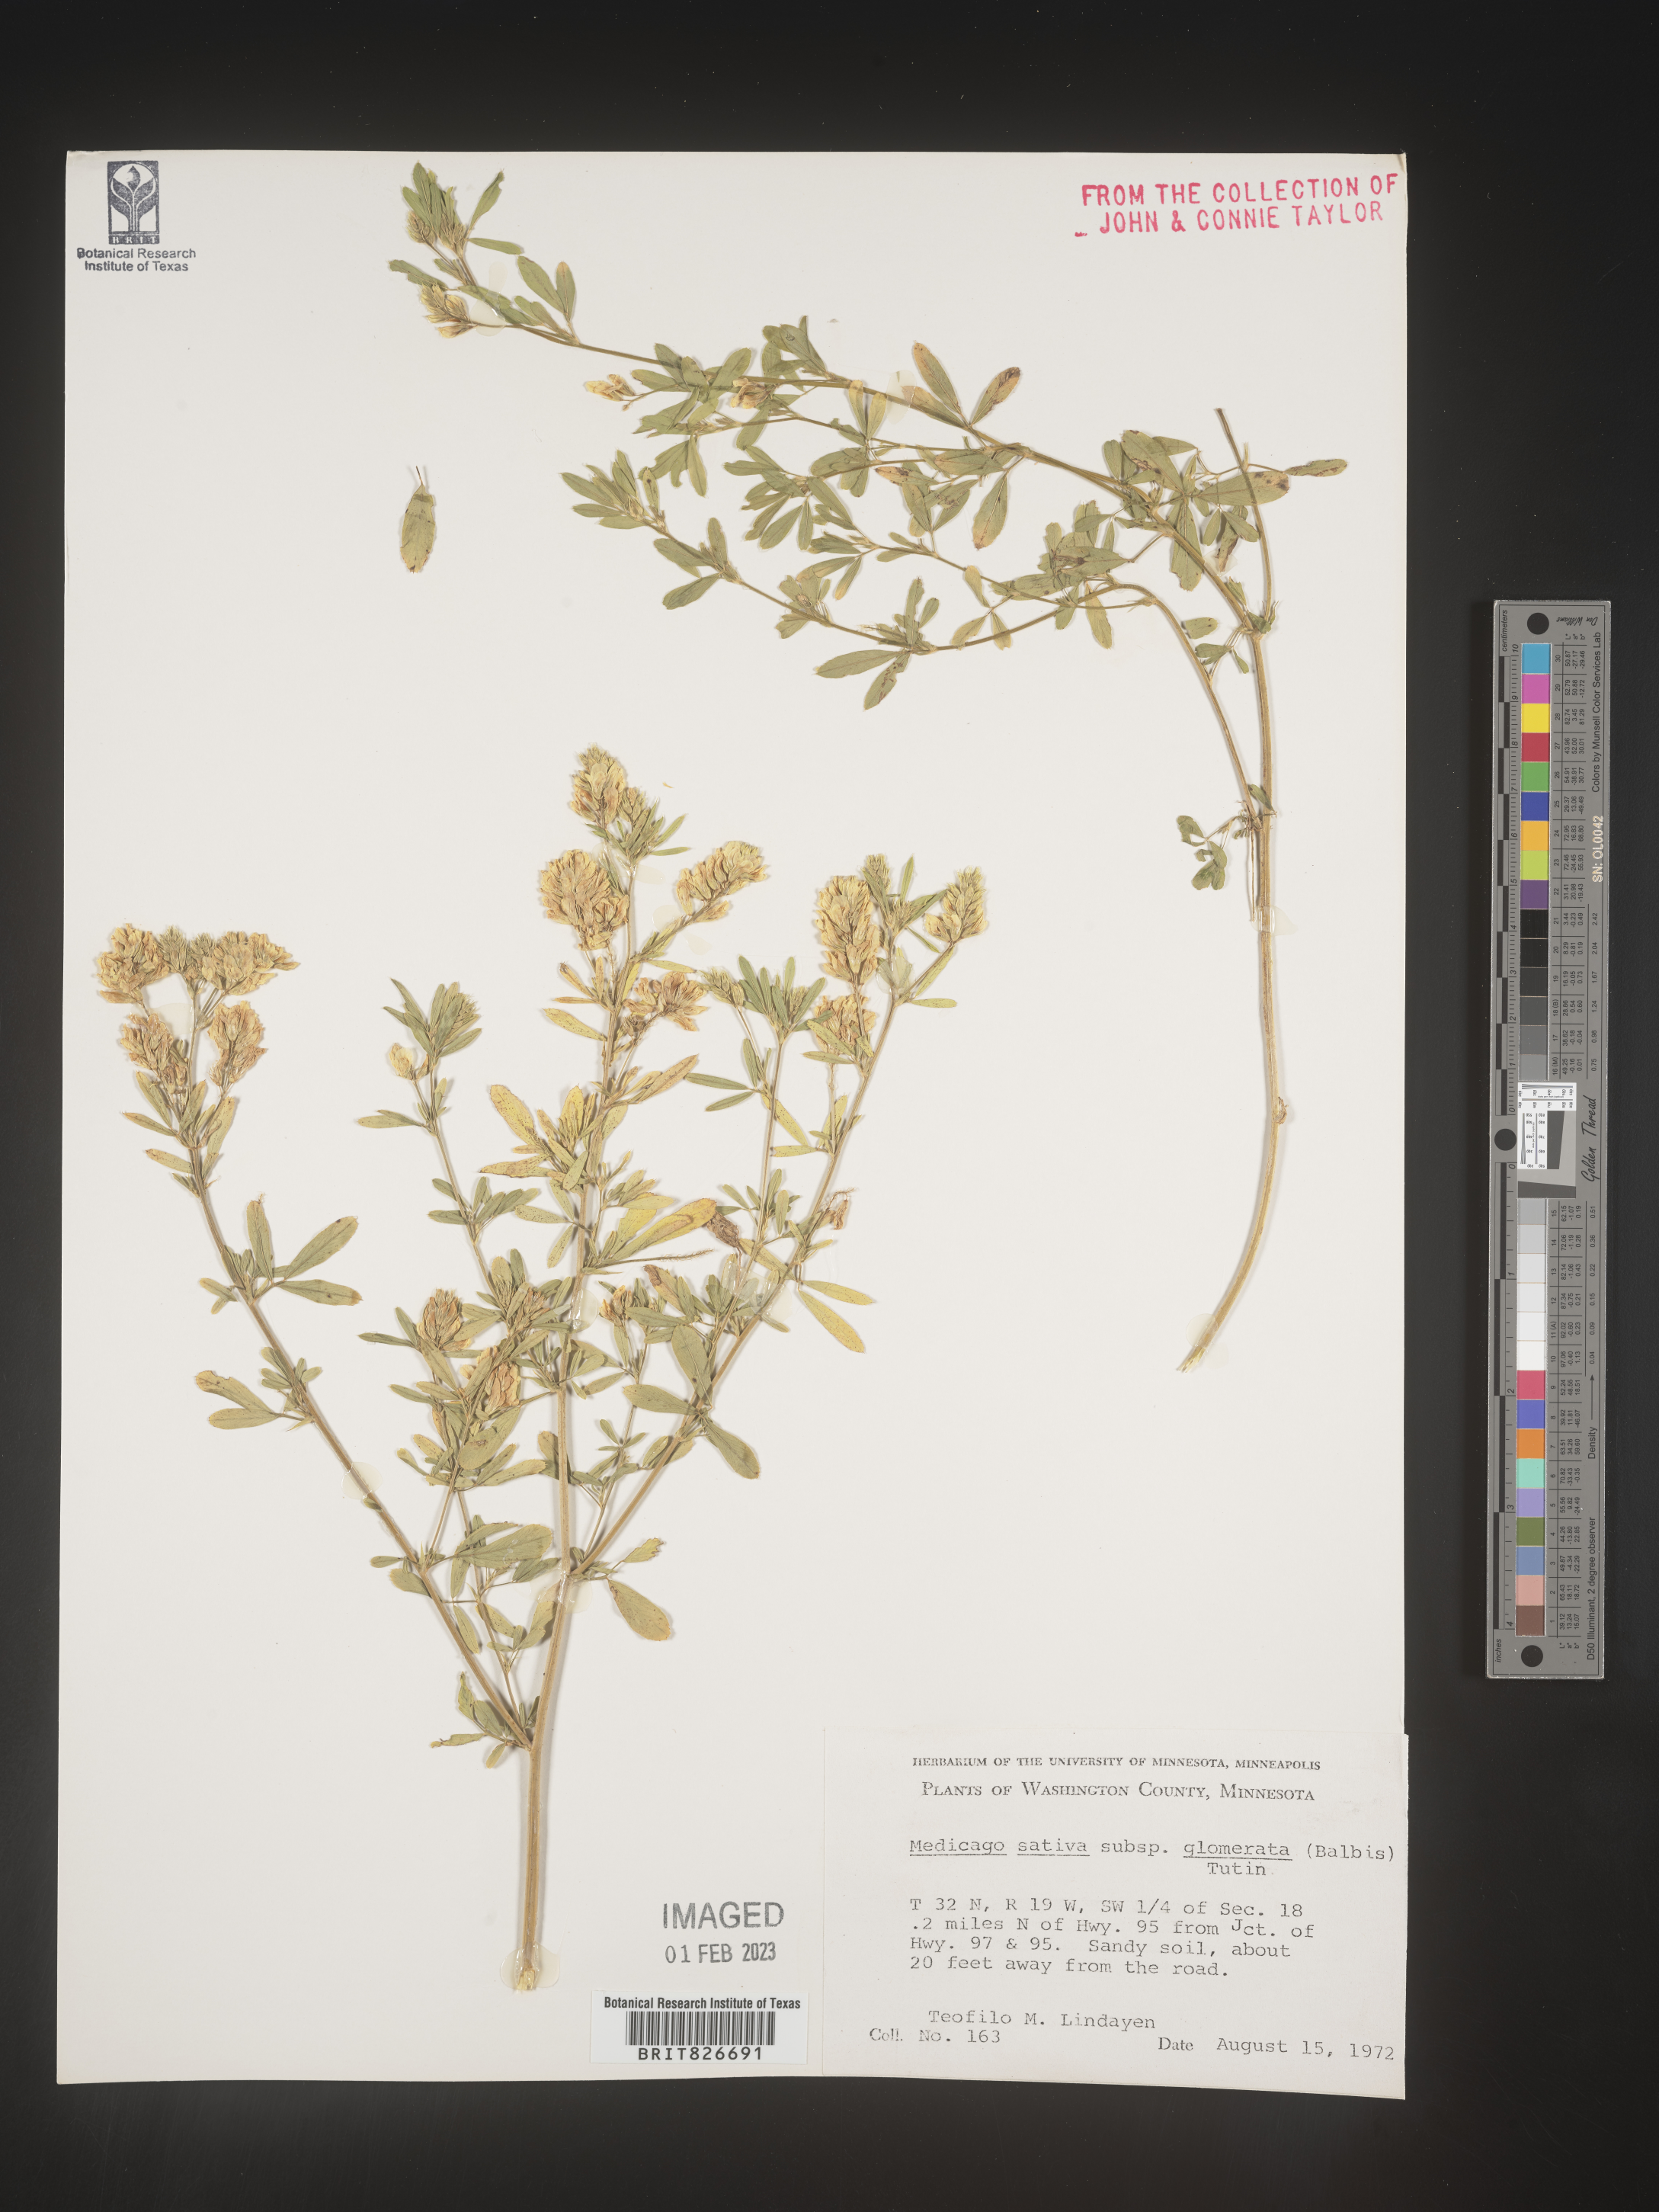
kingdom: Plantae
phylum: Tracheophyta
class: Magnoliopsida
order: Fabales
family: Fabaceae
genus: Medicago
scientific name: Medicago sativa
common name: Alfalfa
